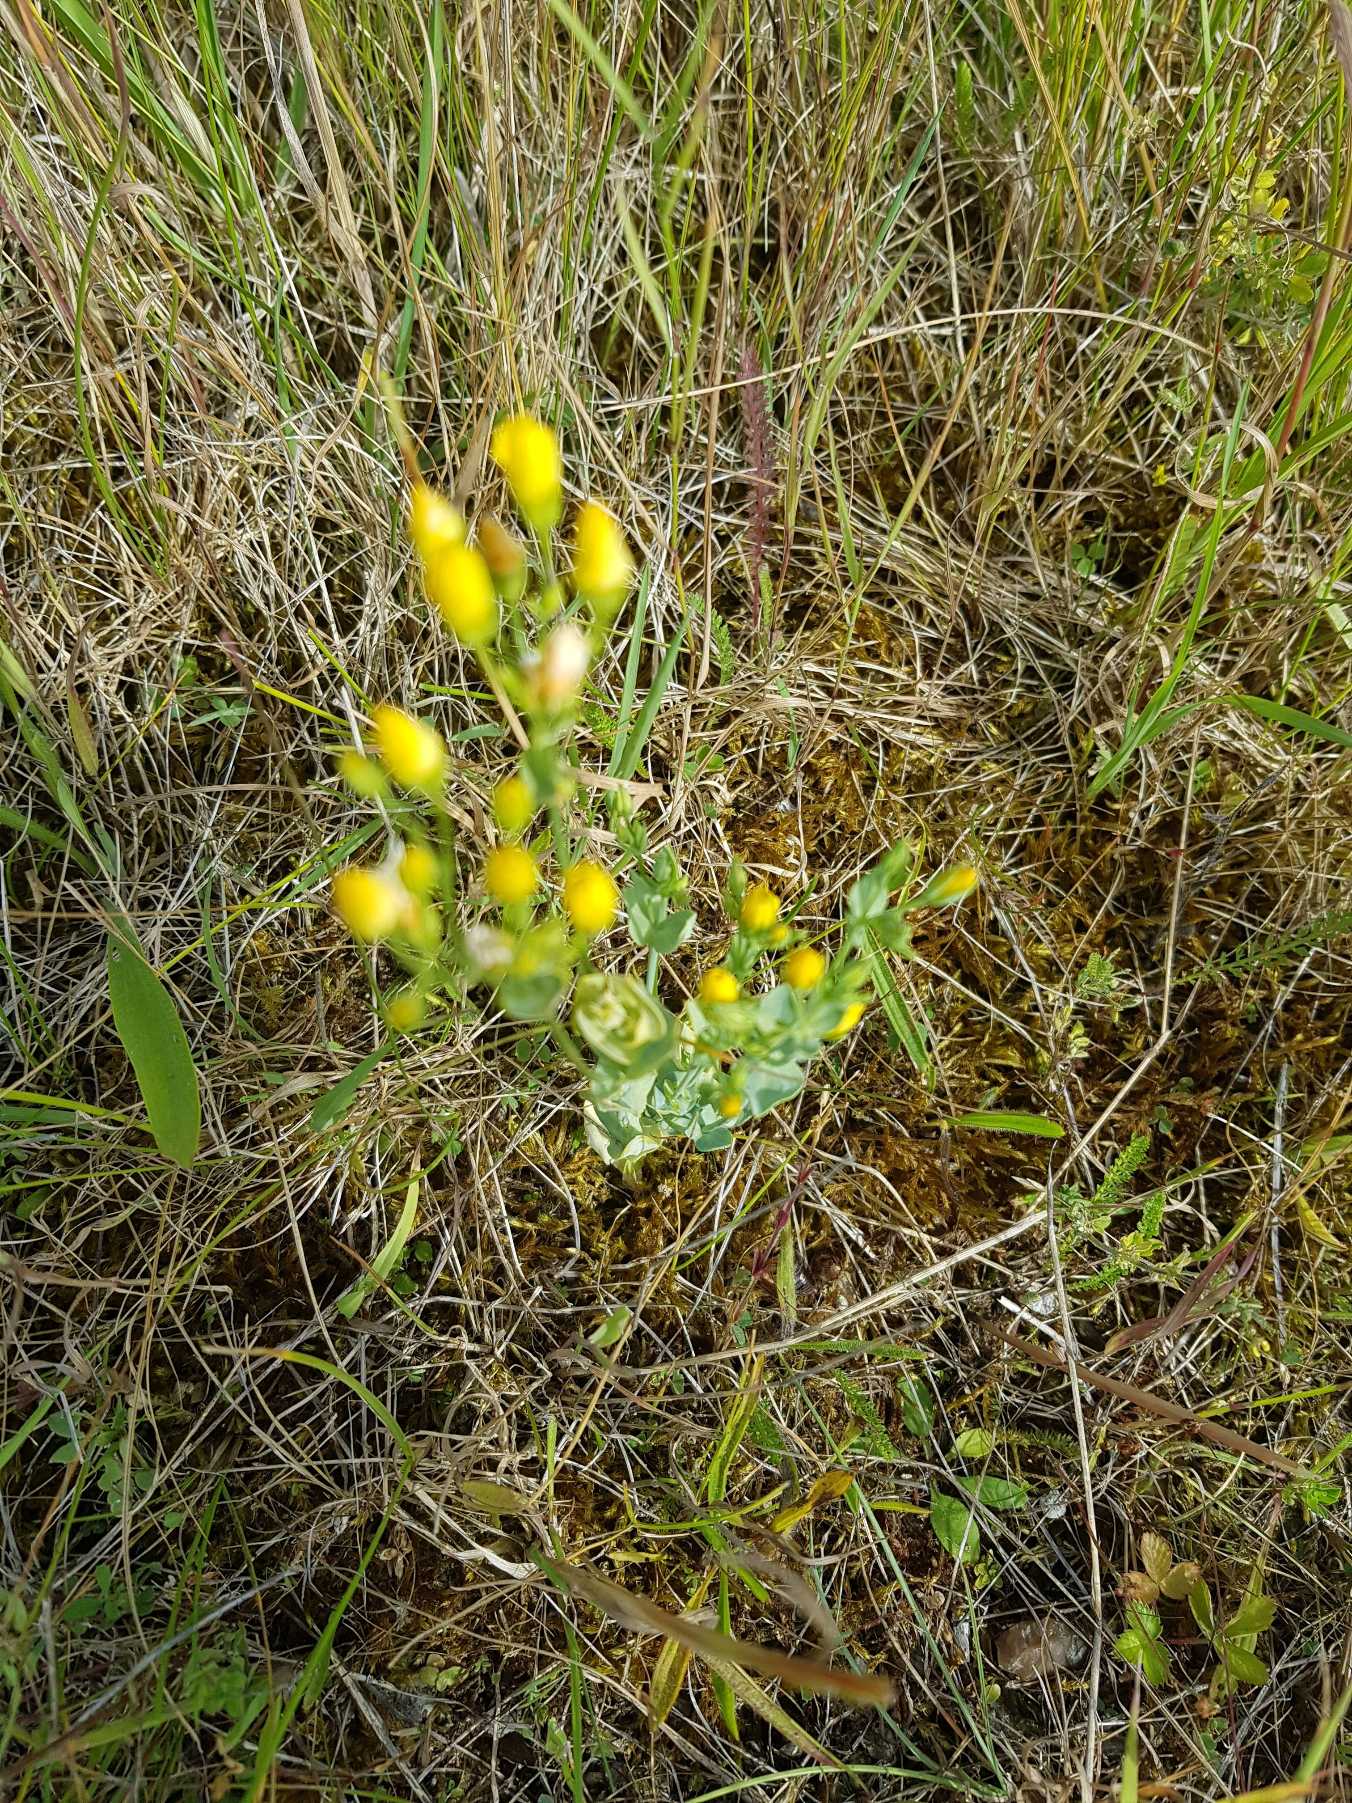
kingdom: Plantae
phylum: Tracheophyta
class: Magnoliopsida
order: Gentianales
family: Gentianaceae
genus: Blackstonia
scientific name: Blackstonia perfoliata
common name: Almindelig gyldenurt
